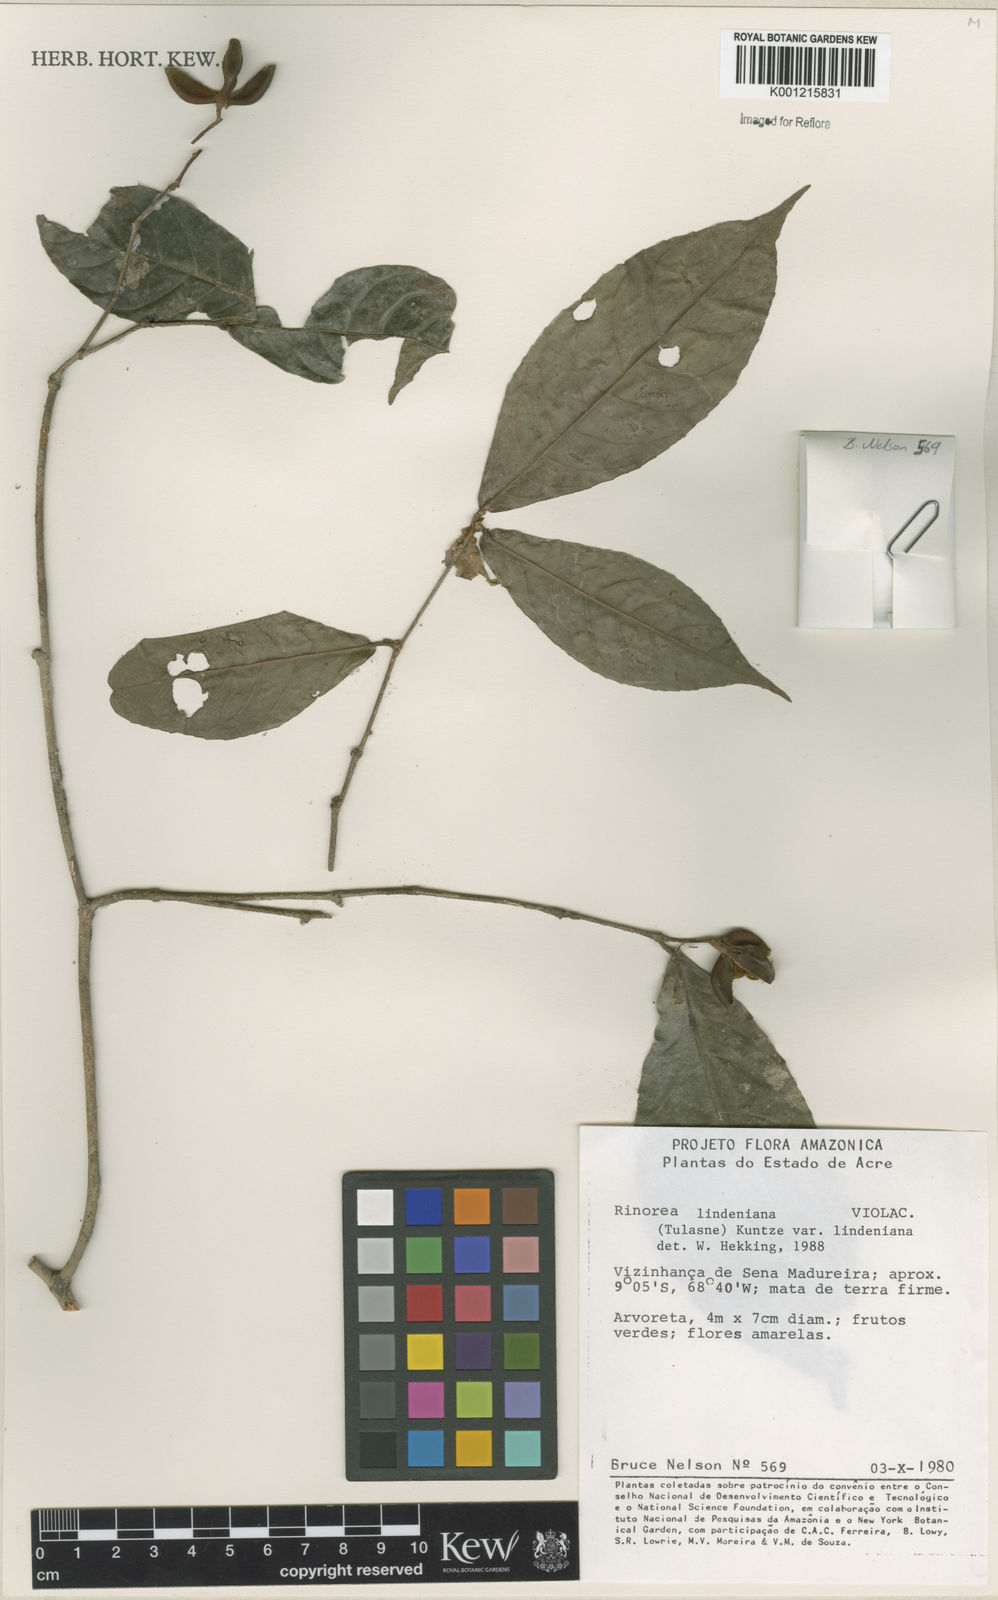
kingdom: Plantae
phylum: Tracheophyta
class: Magnoliopsida
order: Malpighiales
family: Violaceae
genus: Rinorea
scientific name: Rinorea lindeniana
